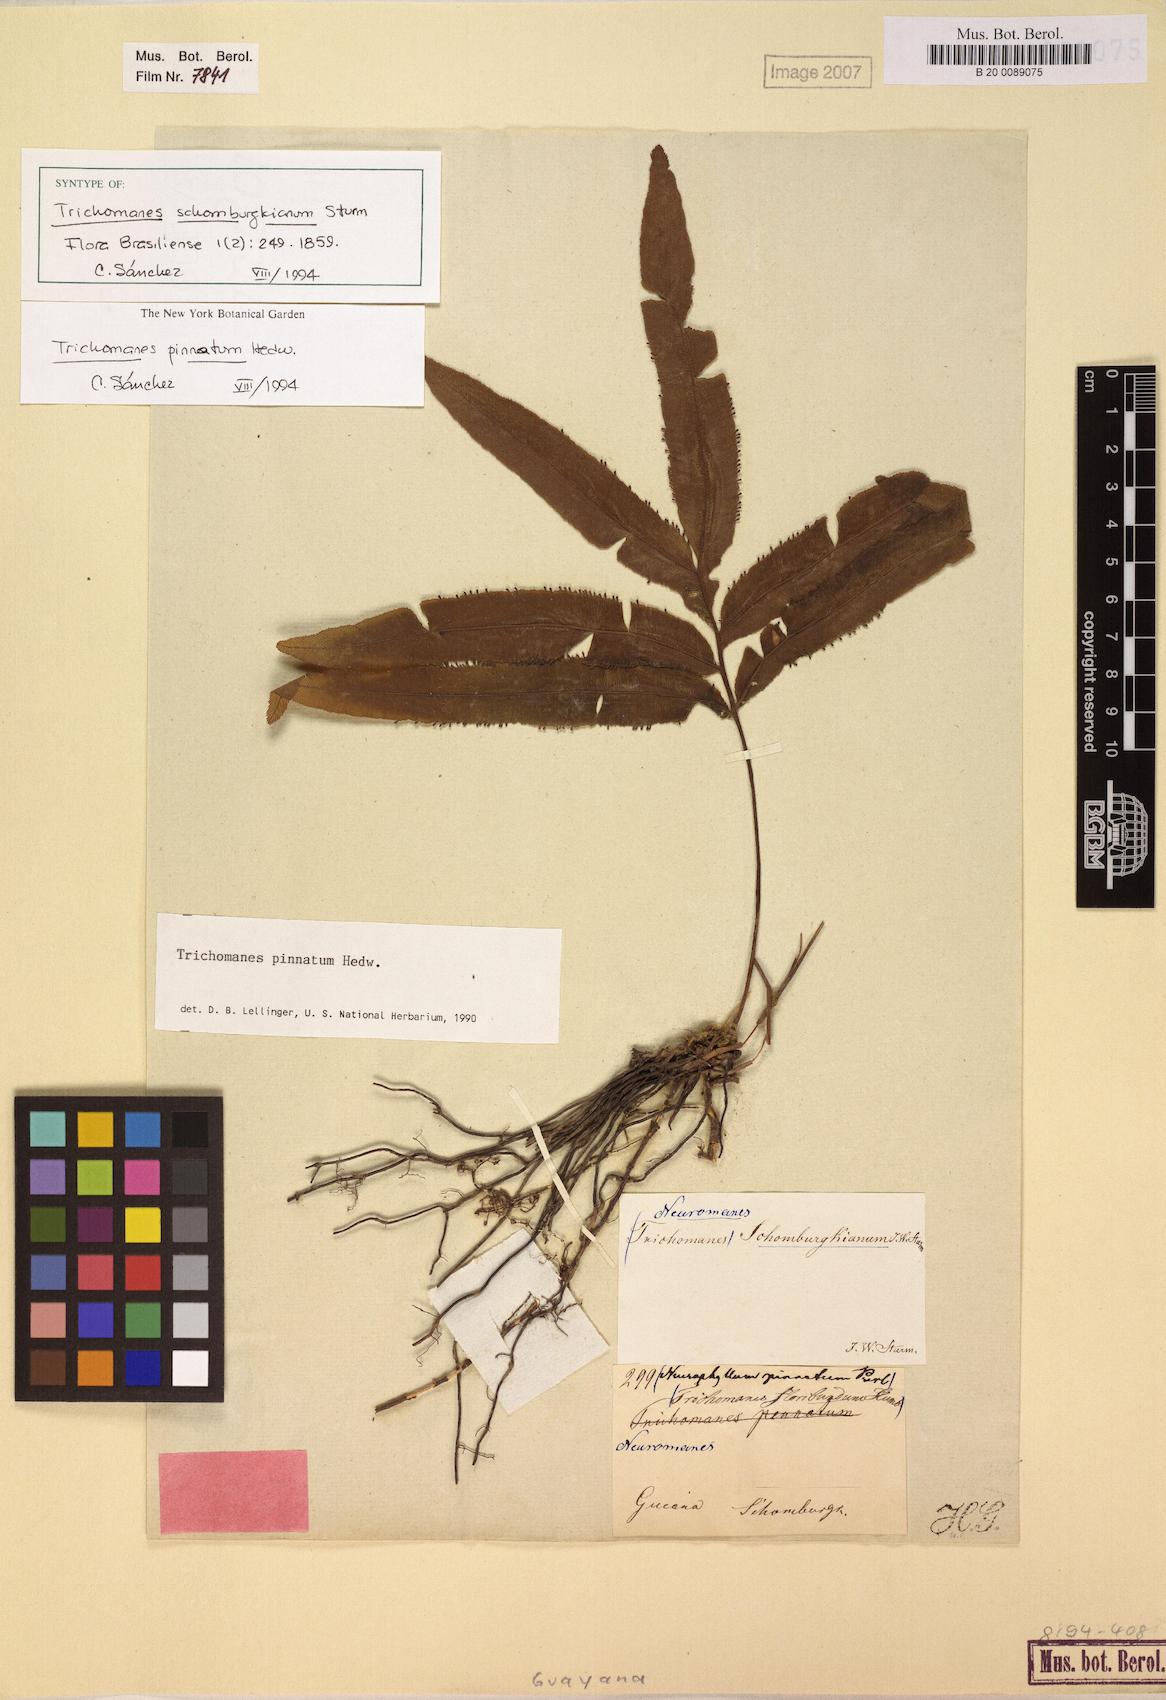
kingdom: Plantae
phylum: Tracheophyta
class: Polypodiopsida
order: Hymenophyllales
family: Hymenophyllaceae
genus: Trichomanes
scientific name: Trichomanes pinnatum
